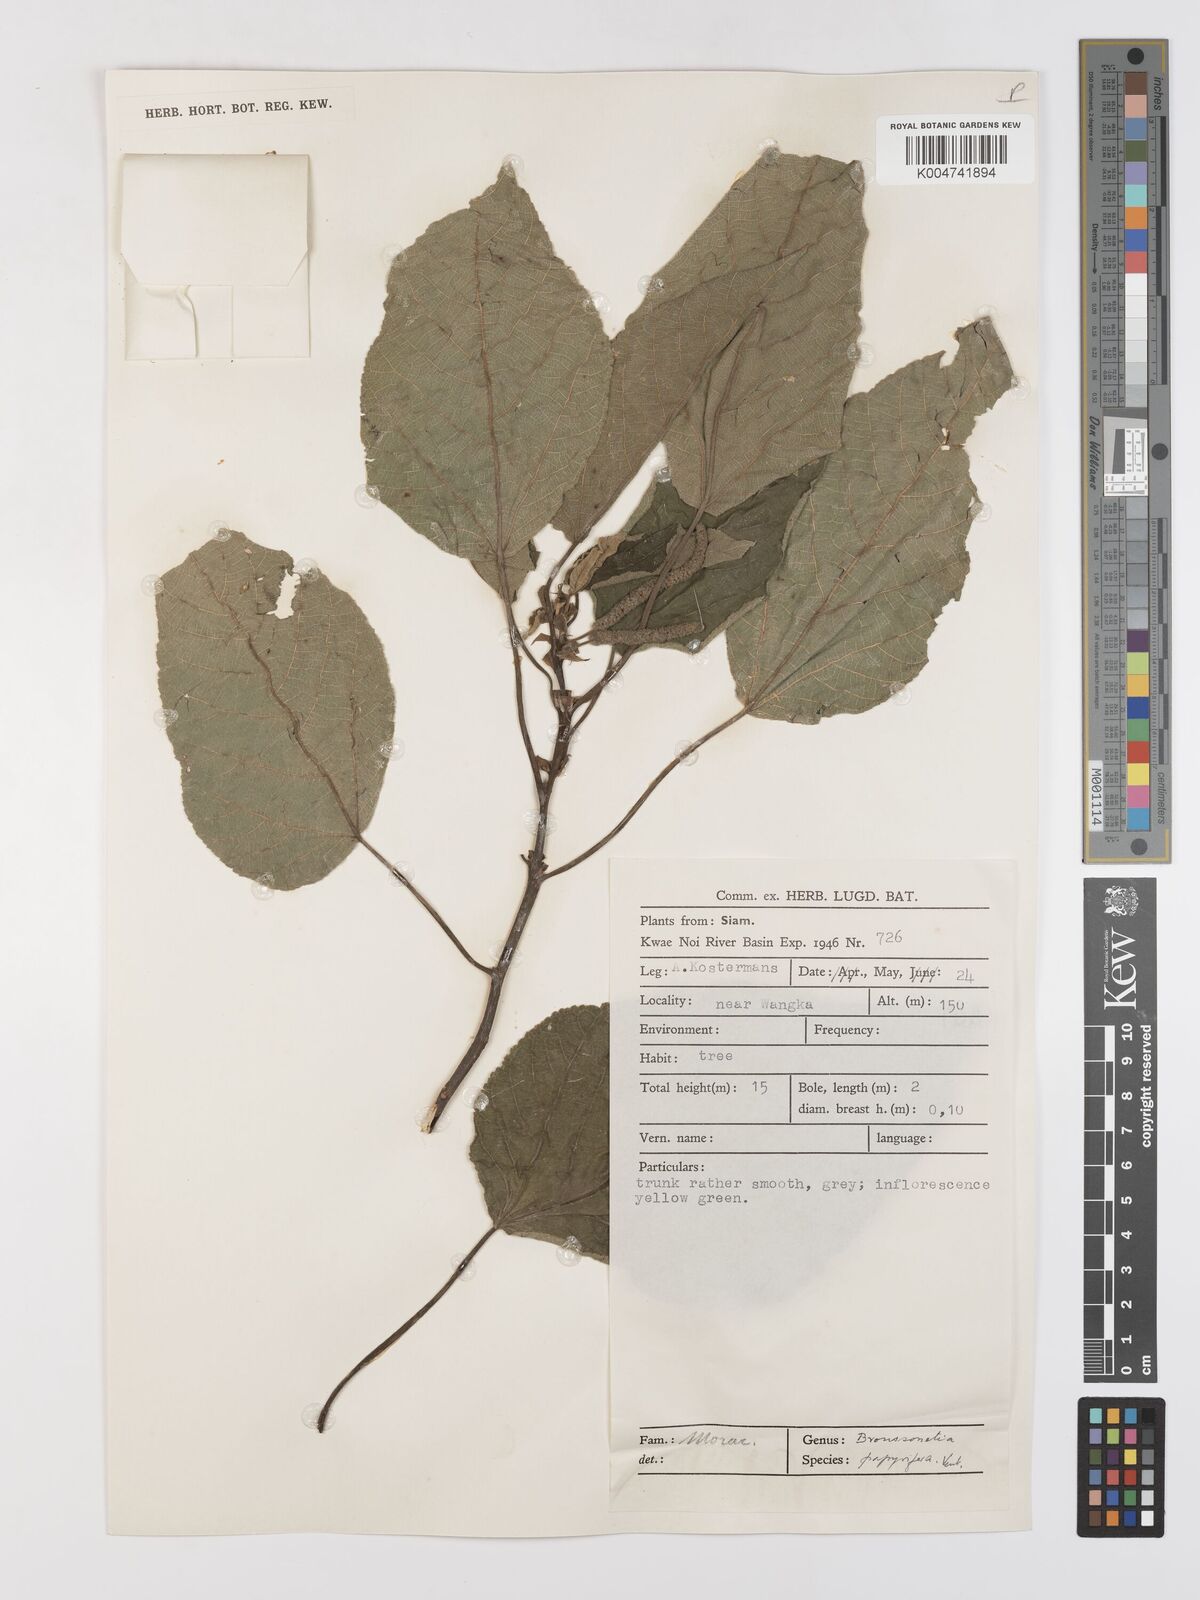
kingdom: Plantae
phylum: Tracheophyta
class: Magnoliopsida
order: Rosales
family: Moraceae
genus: Broussonetia
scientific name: Broussonetia papyrifera
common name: Paper mulberry
